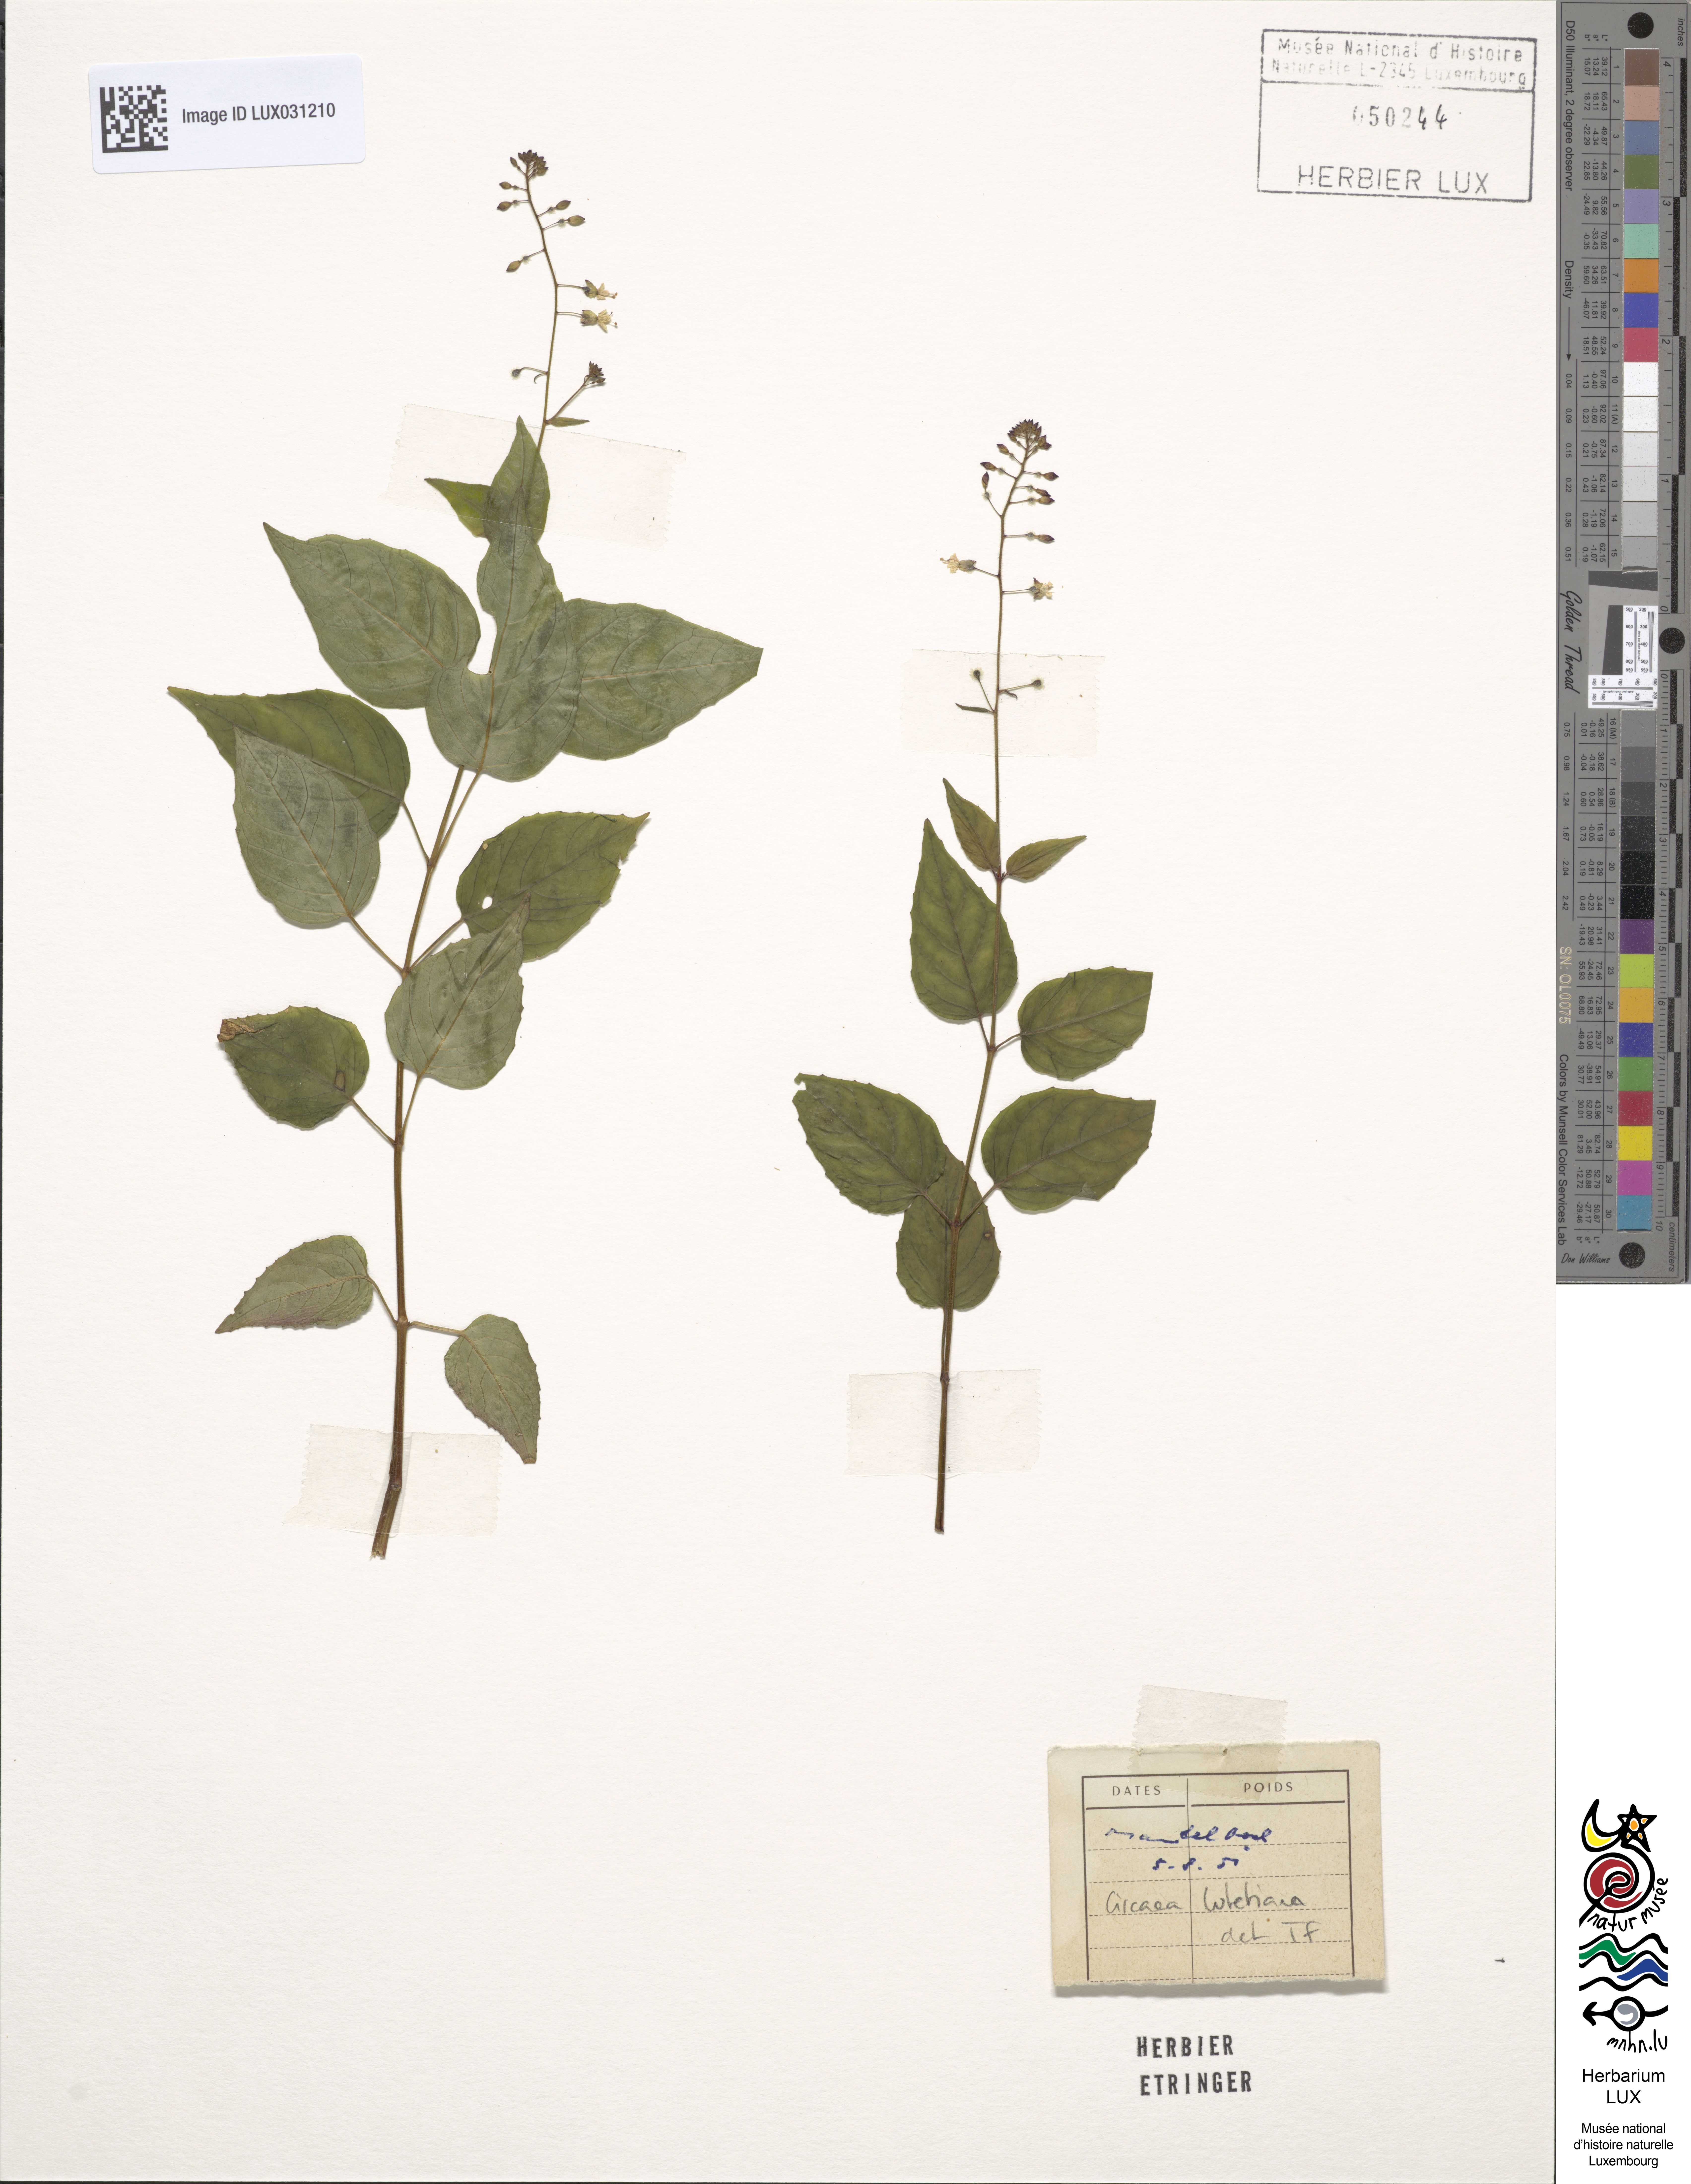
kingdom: Plantae
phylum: Tracheophyta
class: Magnoliopsida
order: Myrtales
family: Onagraceae
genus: Circaea
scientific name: Circaea lutetiana
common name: Enchanter's-nightshade
